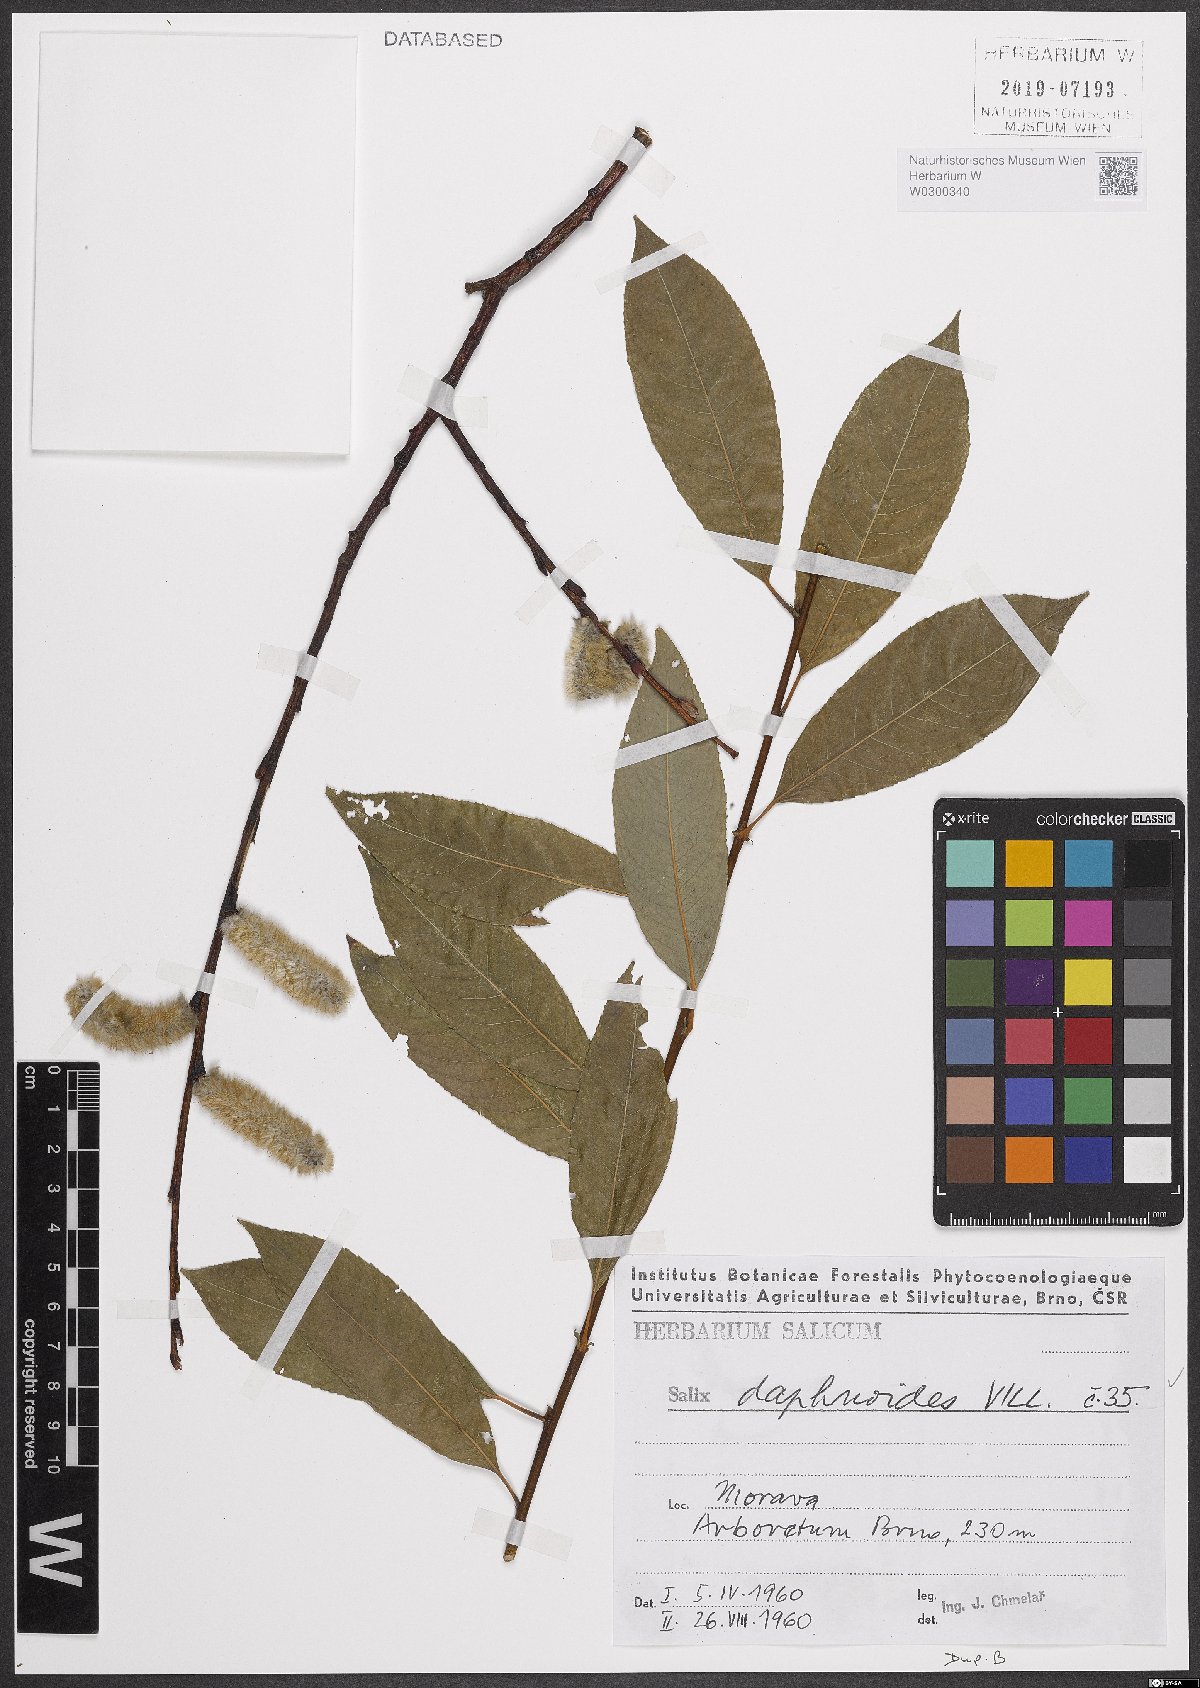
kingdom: Plantae
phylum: Tracheophyta
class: Magnoliopsida
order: Malpighiales
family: Salicaceae
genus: Salix
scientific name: Salix daphnoides
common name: European violet-willow
